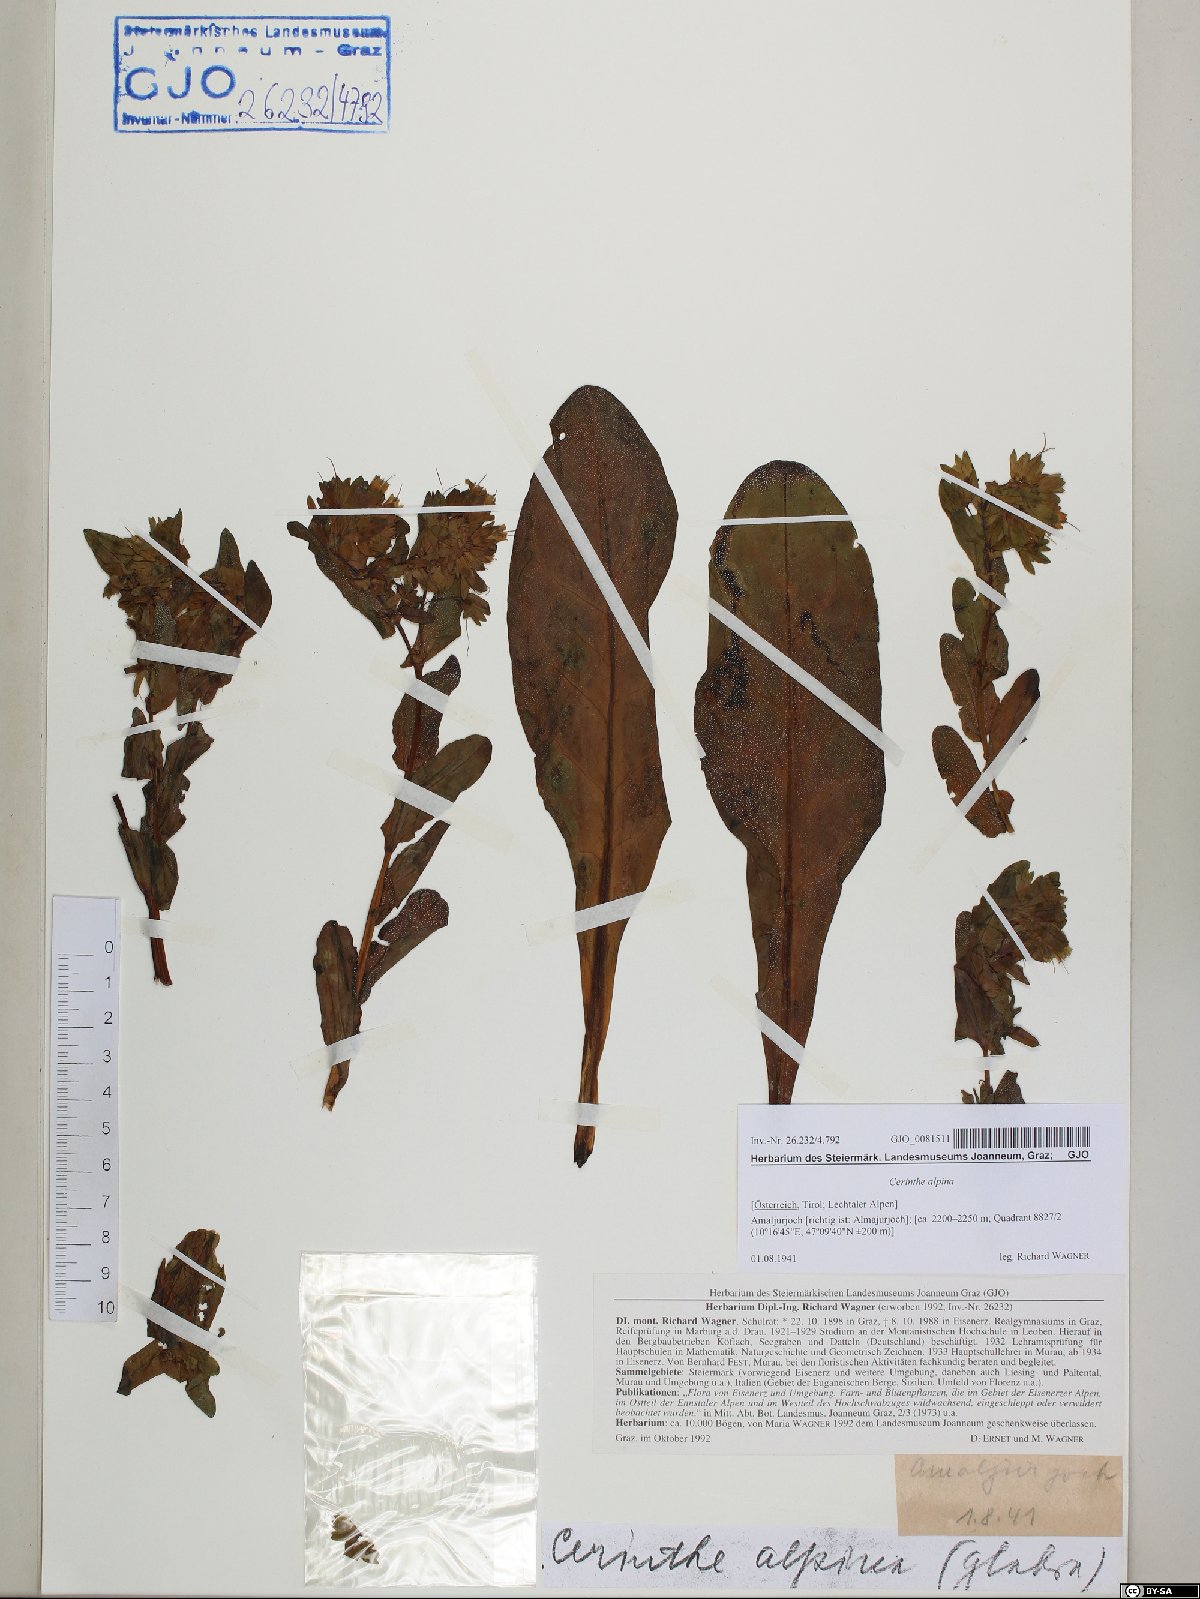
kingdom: Plantae
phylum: Tracheophyta
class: Magnoliopsida
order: Boraginales
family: Boraginaceae
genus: Cerinthe
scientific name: Cerinthe glabra
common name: Smooth honeywort
